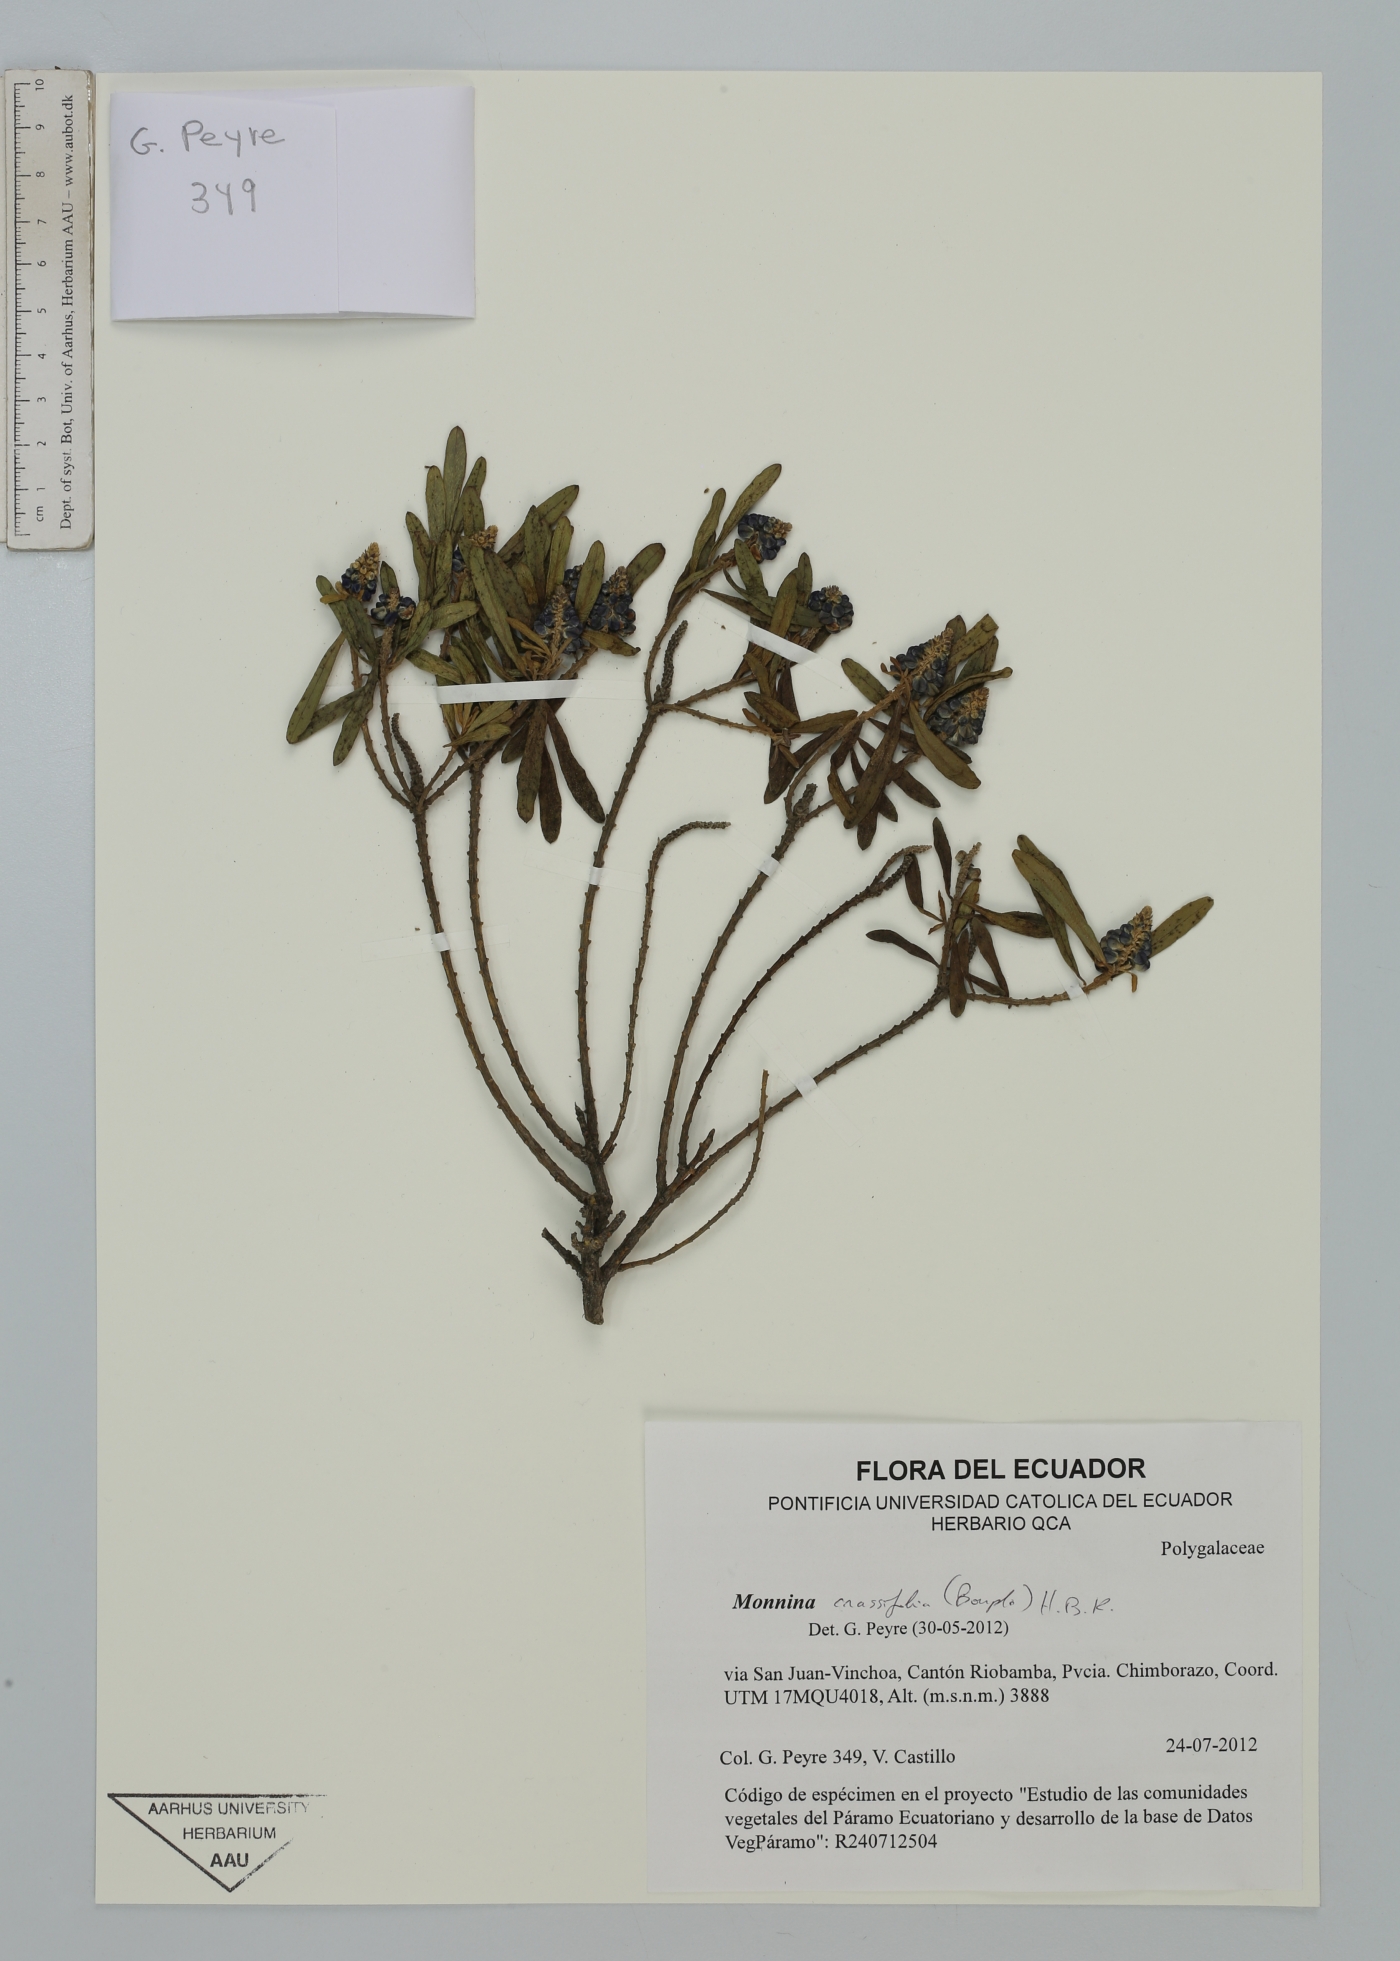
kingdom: Plantae
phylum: Tracheophyta
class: Magnoliopsida
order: Fabales
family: Polygalaceae
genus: Monnina
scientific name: Monnina crassifolia
